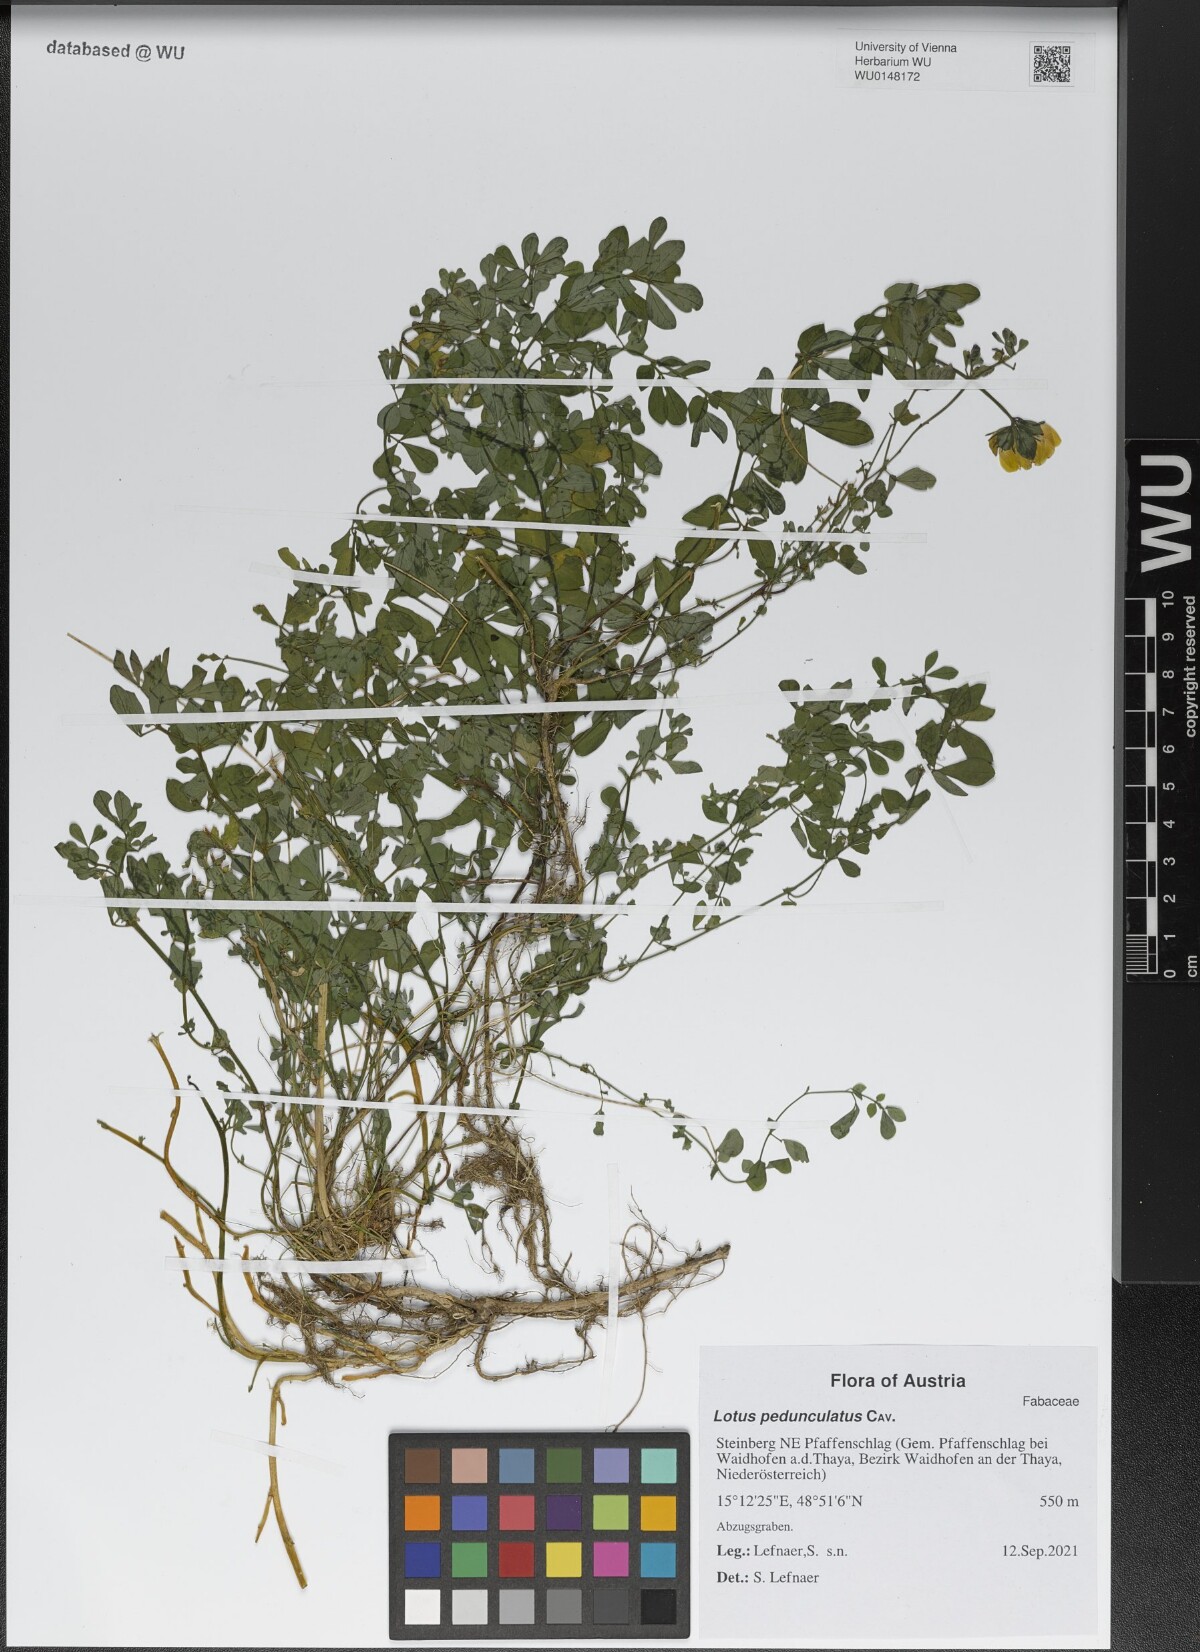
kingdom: Plantae
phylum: Tracheophyta
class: Magnoliopsida
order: Fabales
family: Fabaceae
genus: Lotus
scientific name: Lotus pedunculatus
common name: Greater birdsfoot-trefoil
